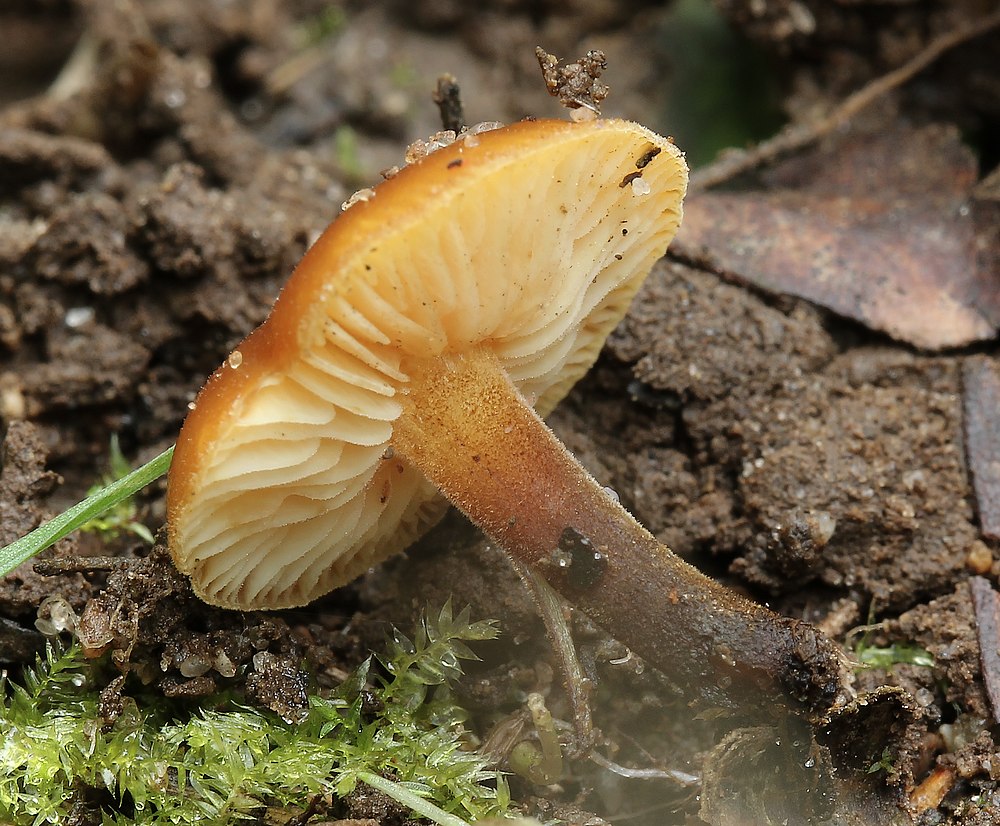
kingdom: Fungi
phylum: Basidiomycota
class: Agaricomycetes
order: Agaricales
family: Physalacriaceae
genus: Flammulina
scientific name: Flammulina
